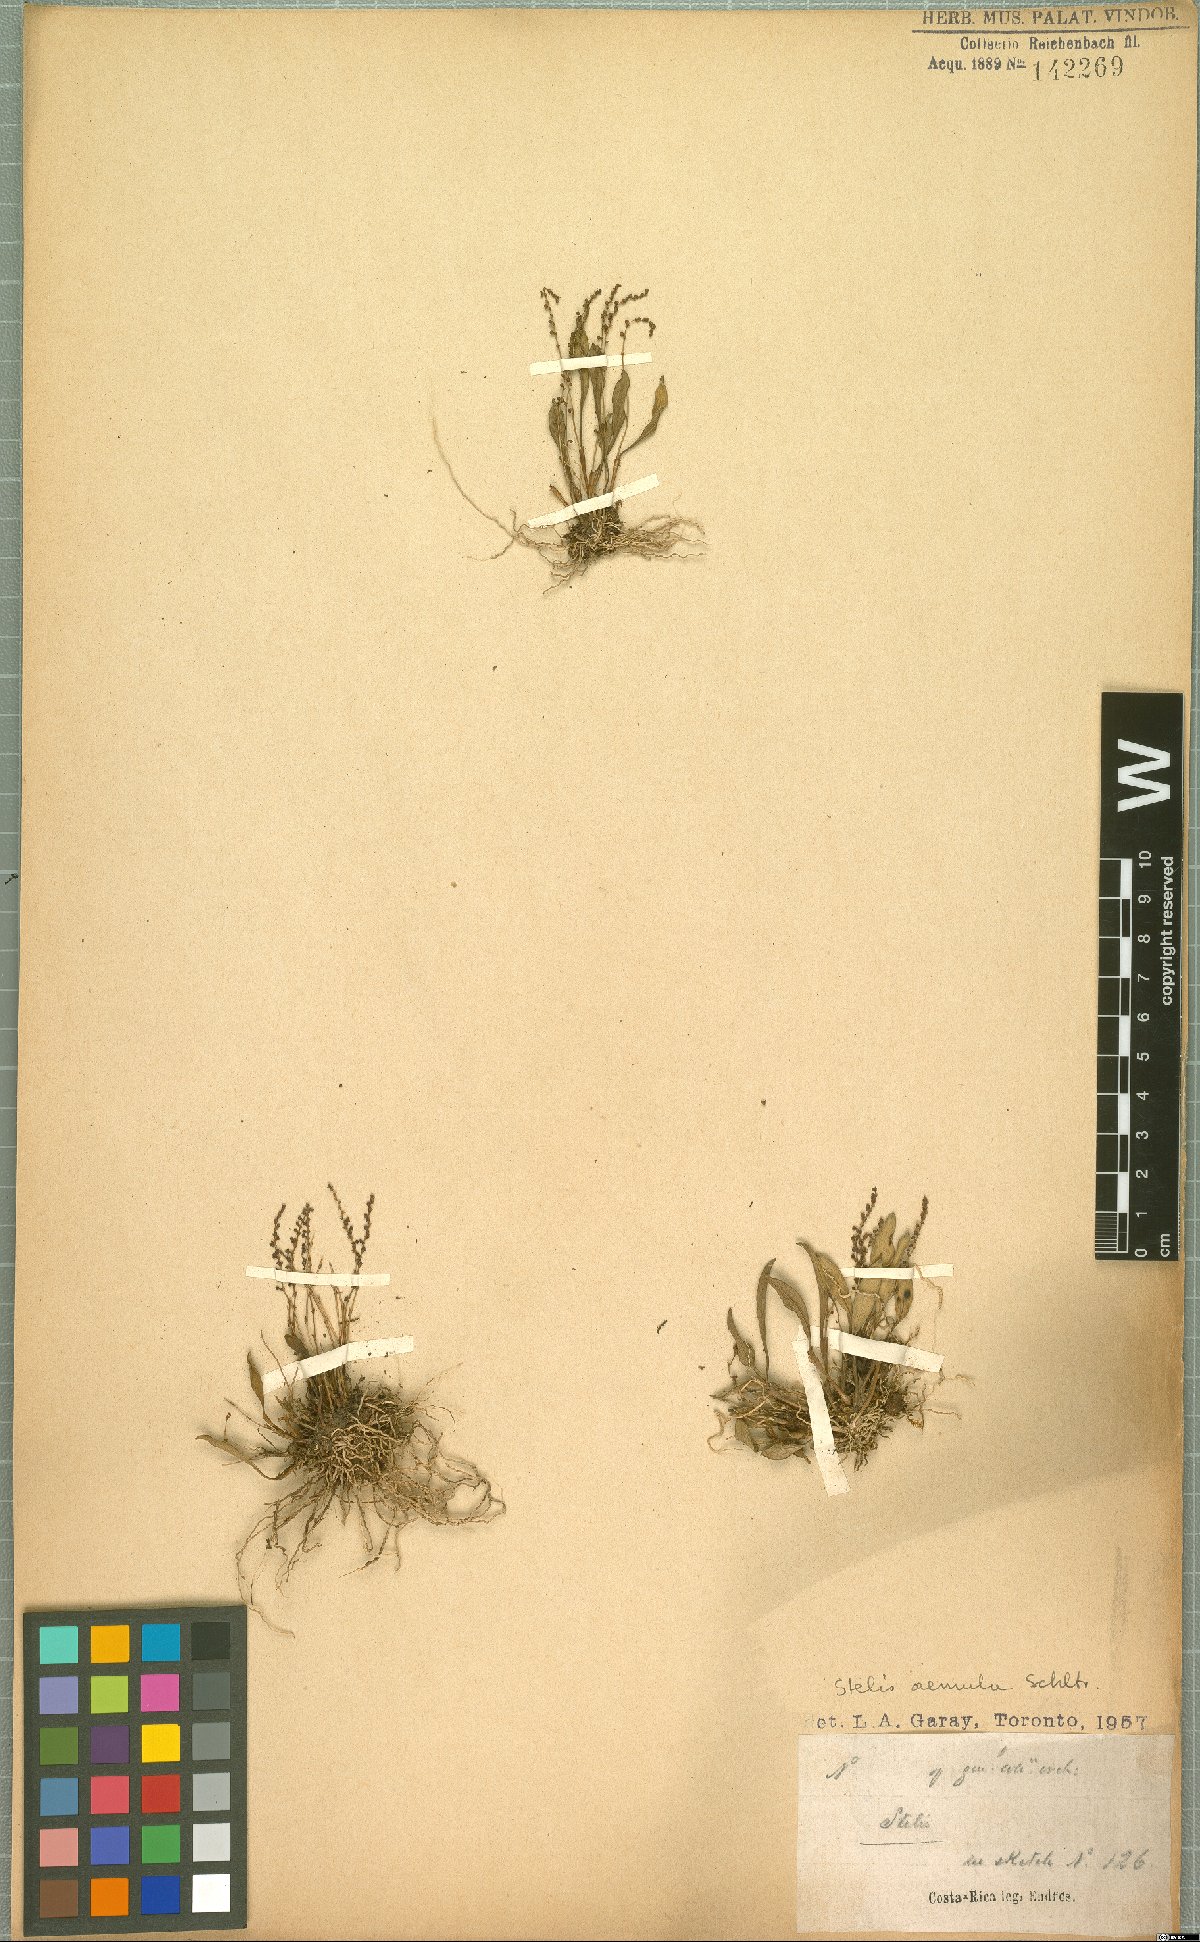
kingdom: Plantae
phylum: Tracheophyta
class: Liliopsida
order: Asparagales
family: Orchidaceae
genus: Stelis
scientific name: Stelis aemula
